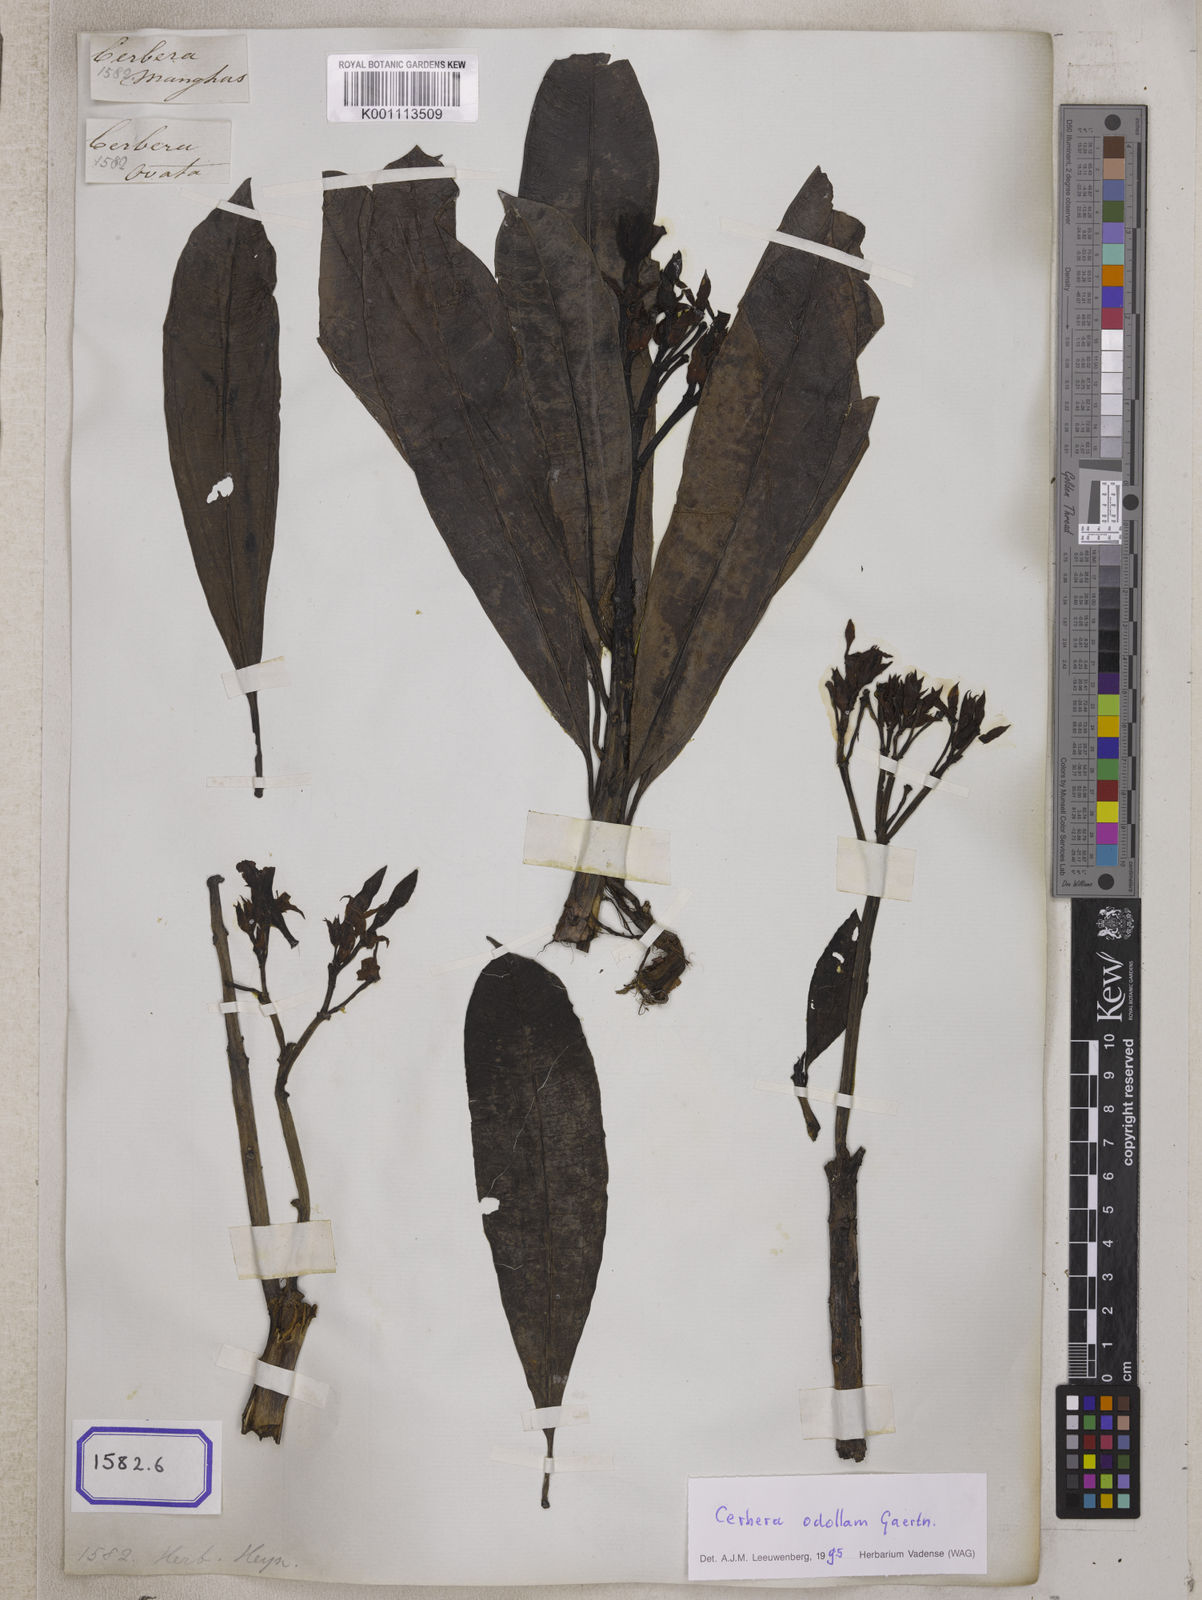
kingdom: Plantae
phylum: Tracheophyta
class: Magnoliopsida
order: Gentianales
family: Apocynaceae
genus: Cerbera
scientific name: Cerbera manghas
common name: Reva
